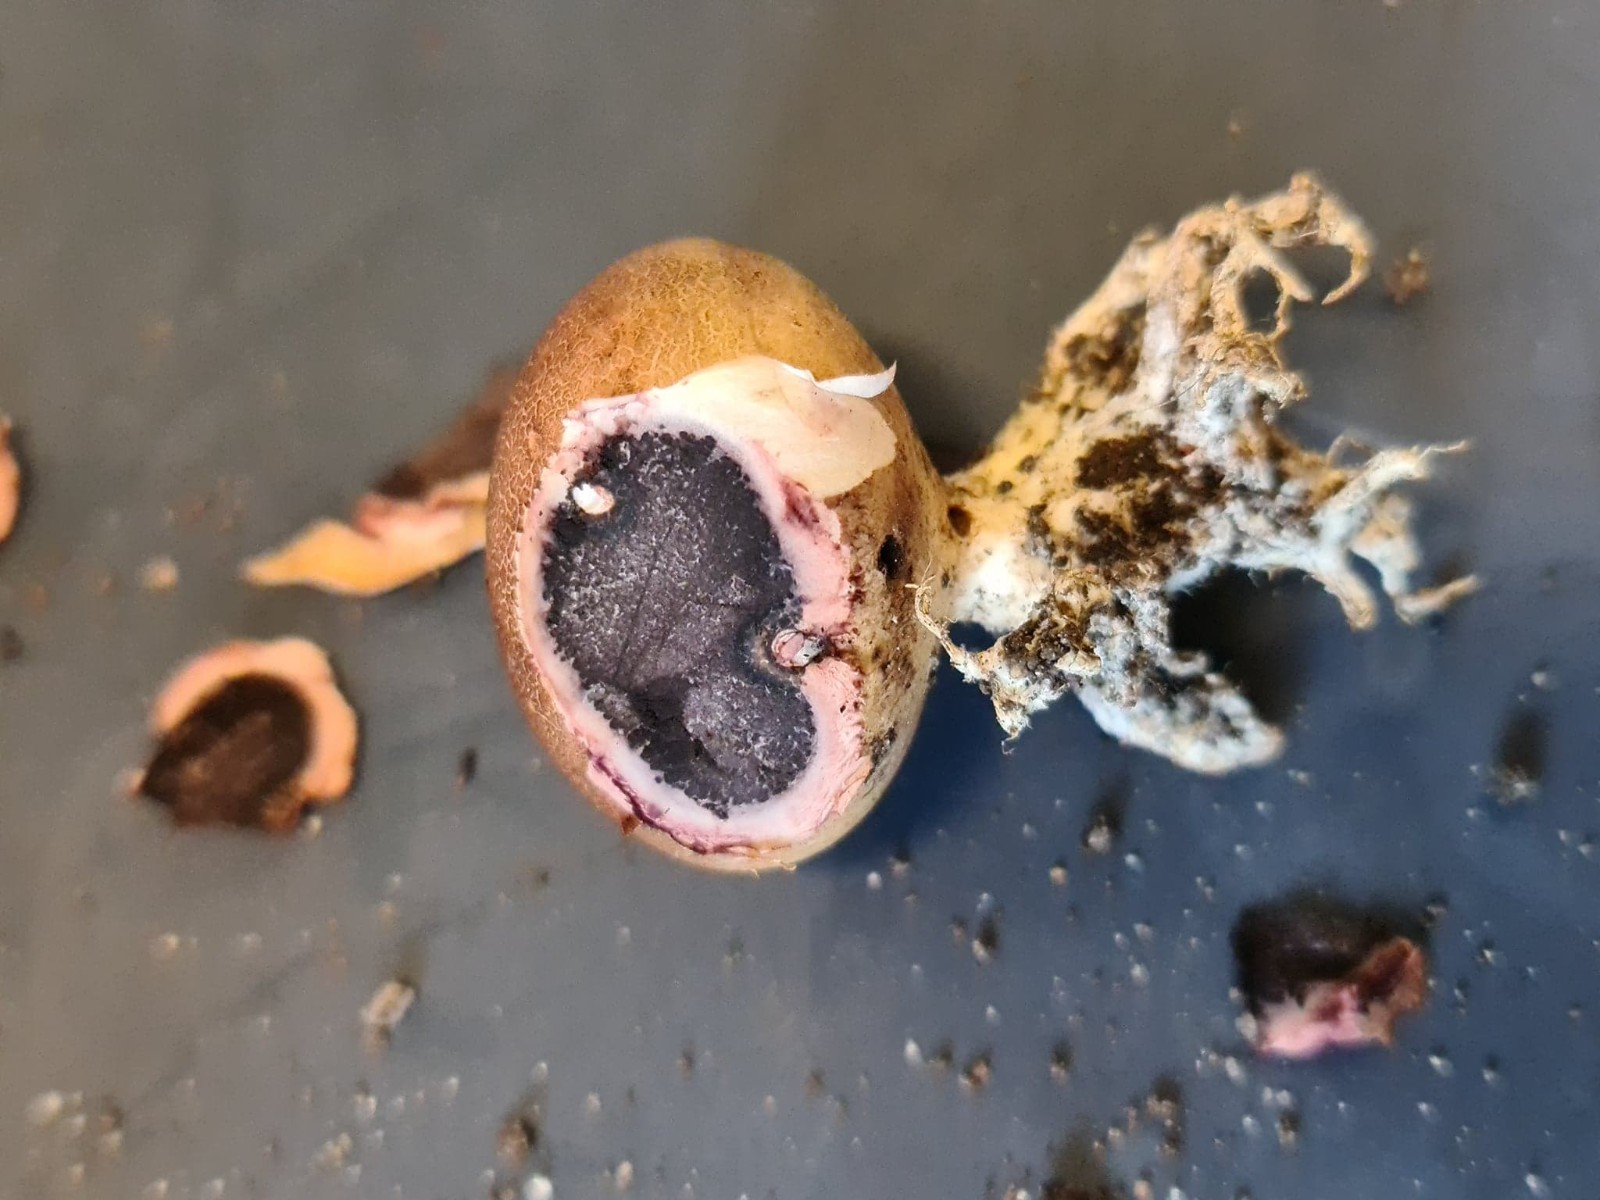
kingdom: Fungi
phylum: Basidiomycota
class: Agaricomycetes
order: Boletales
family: Sclerodermataceae
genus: Scleroderma
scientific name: Scleroderma
